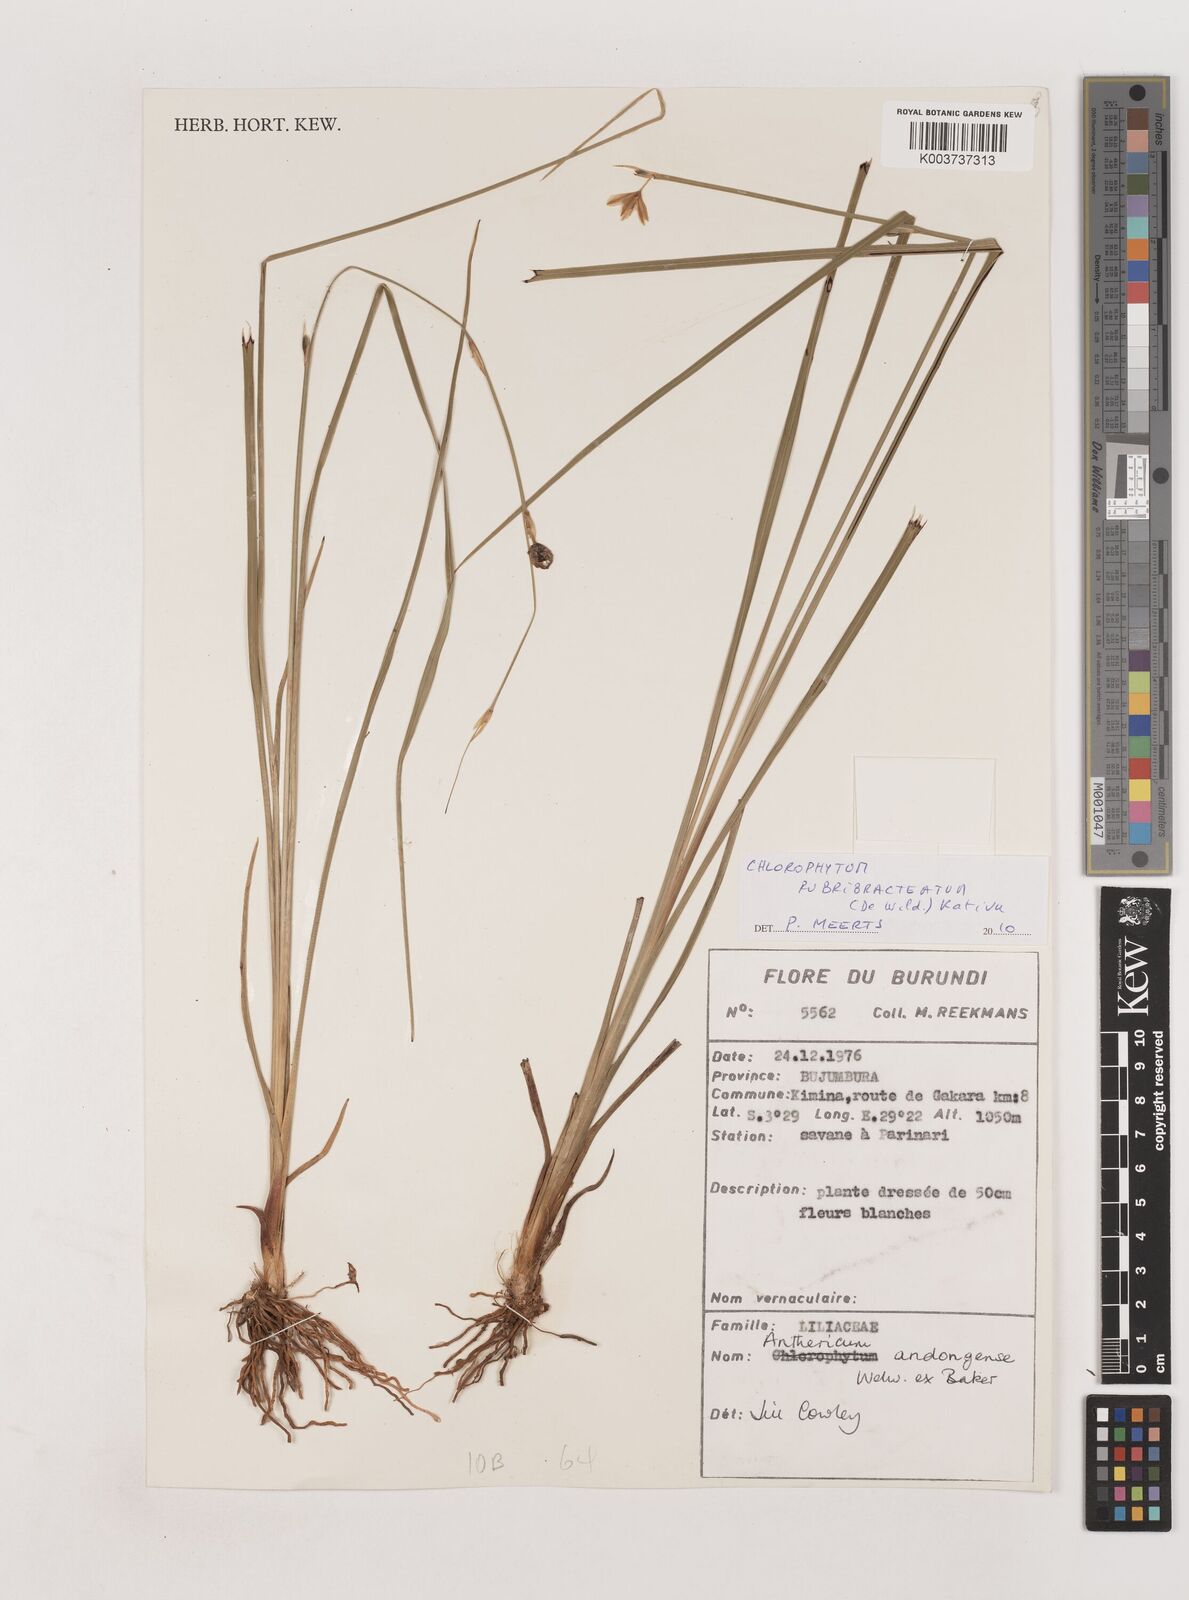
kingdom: Plantae
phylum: Tracheophyta
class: Liliopsida
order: Asparagales
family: Asparagaceae
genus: Chlorophytum
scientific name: Chlorophytum andongense
